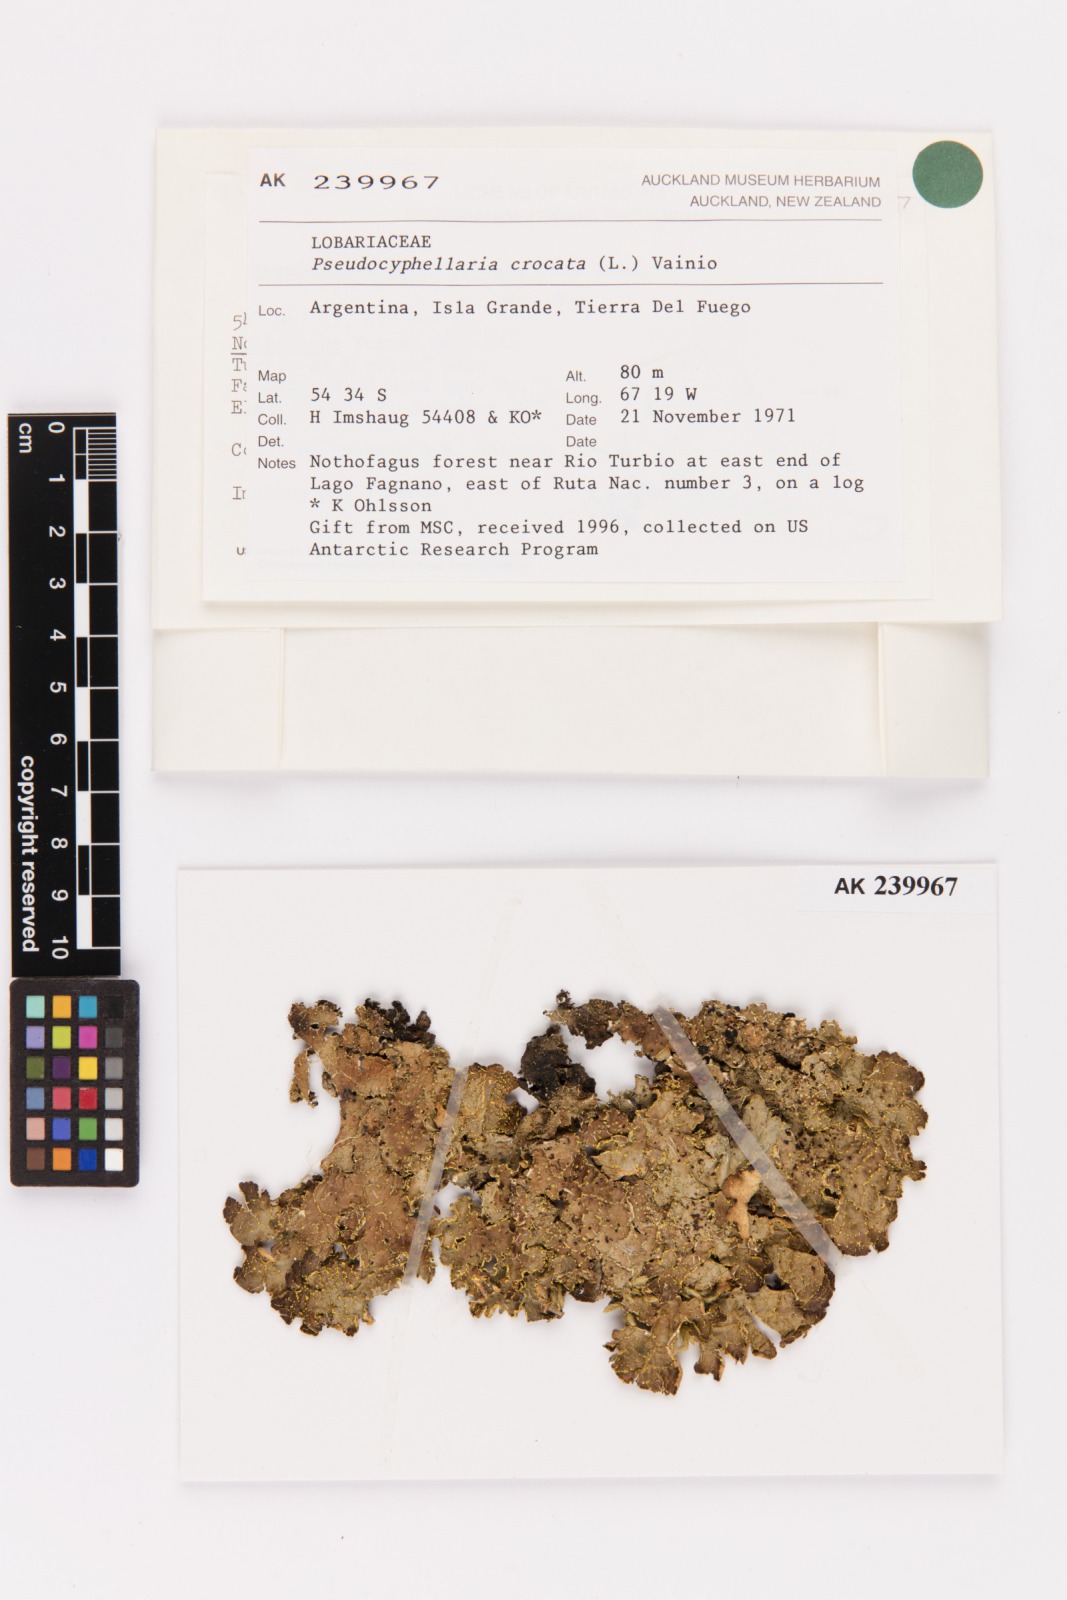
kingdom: Fungi
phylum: Ascomycota
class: Lecanoromycetes
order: Peltigerales
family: Lobariaceae
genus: Pseudocyphellaria
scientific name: Pseudocyphellaria crocata
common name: Golden specklebelly
